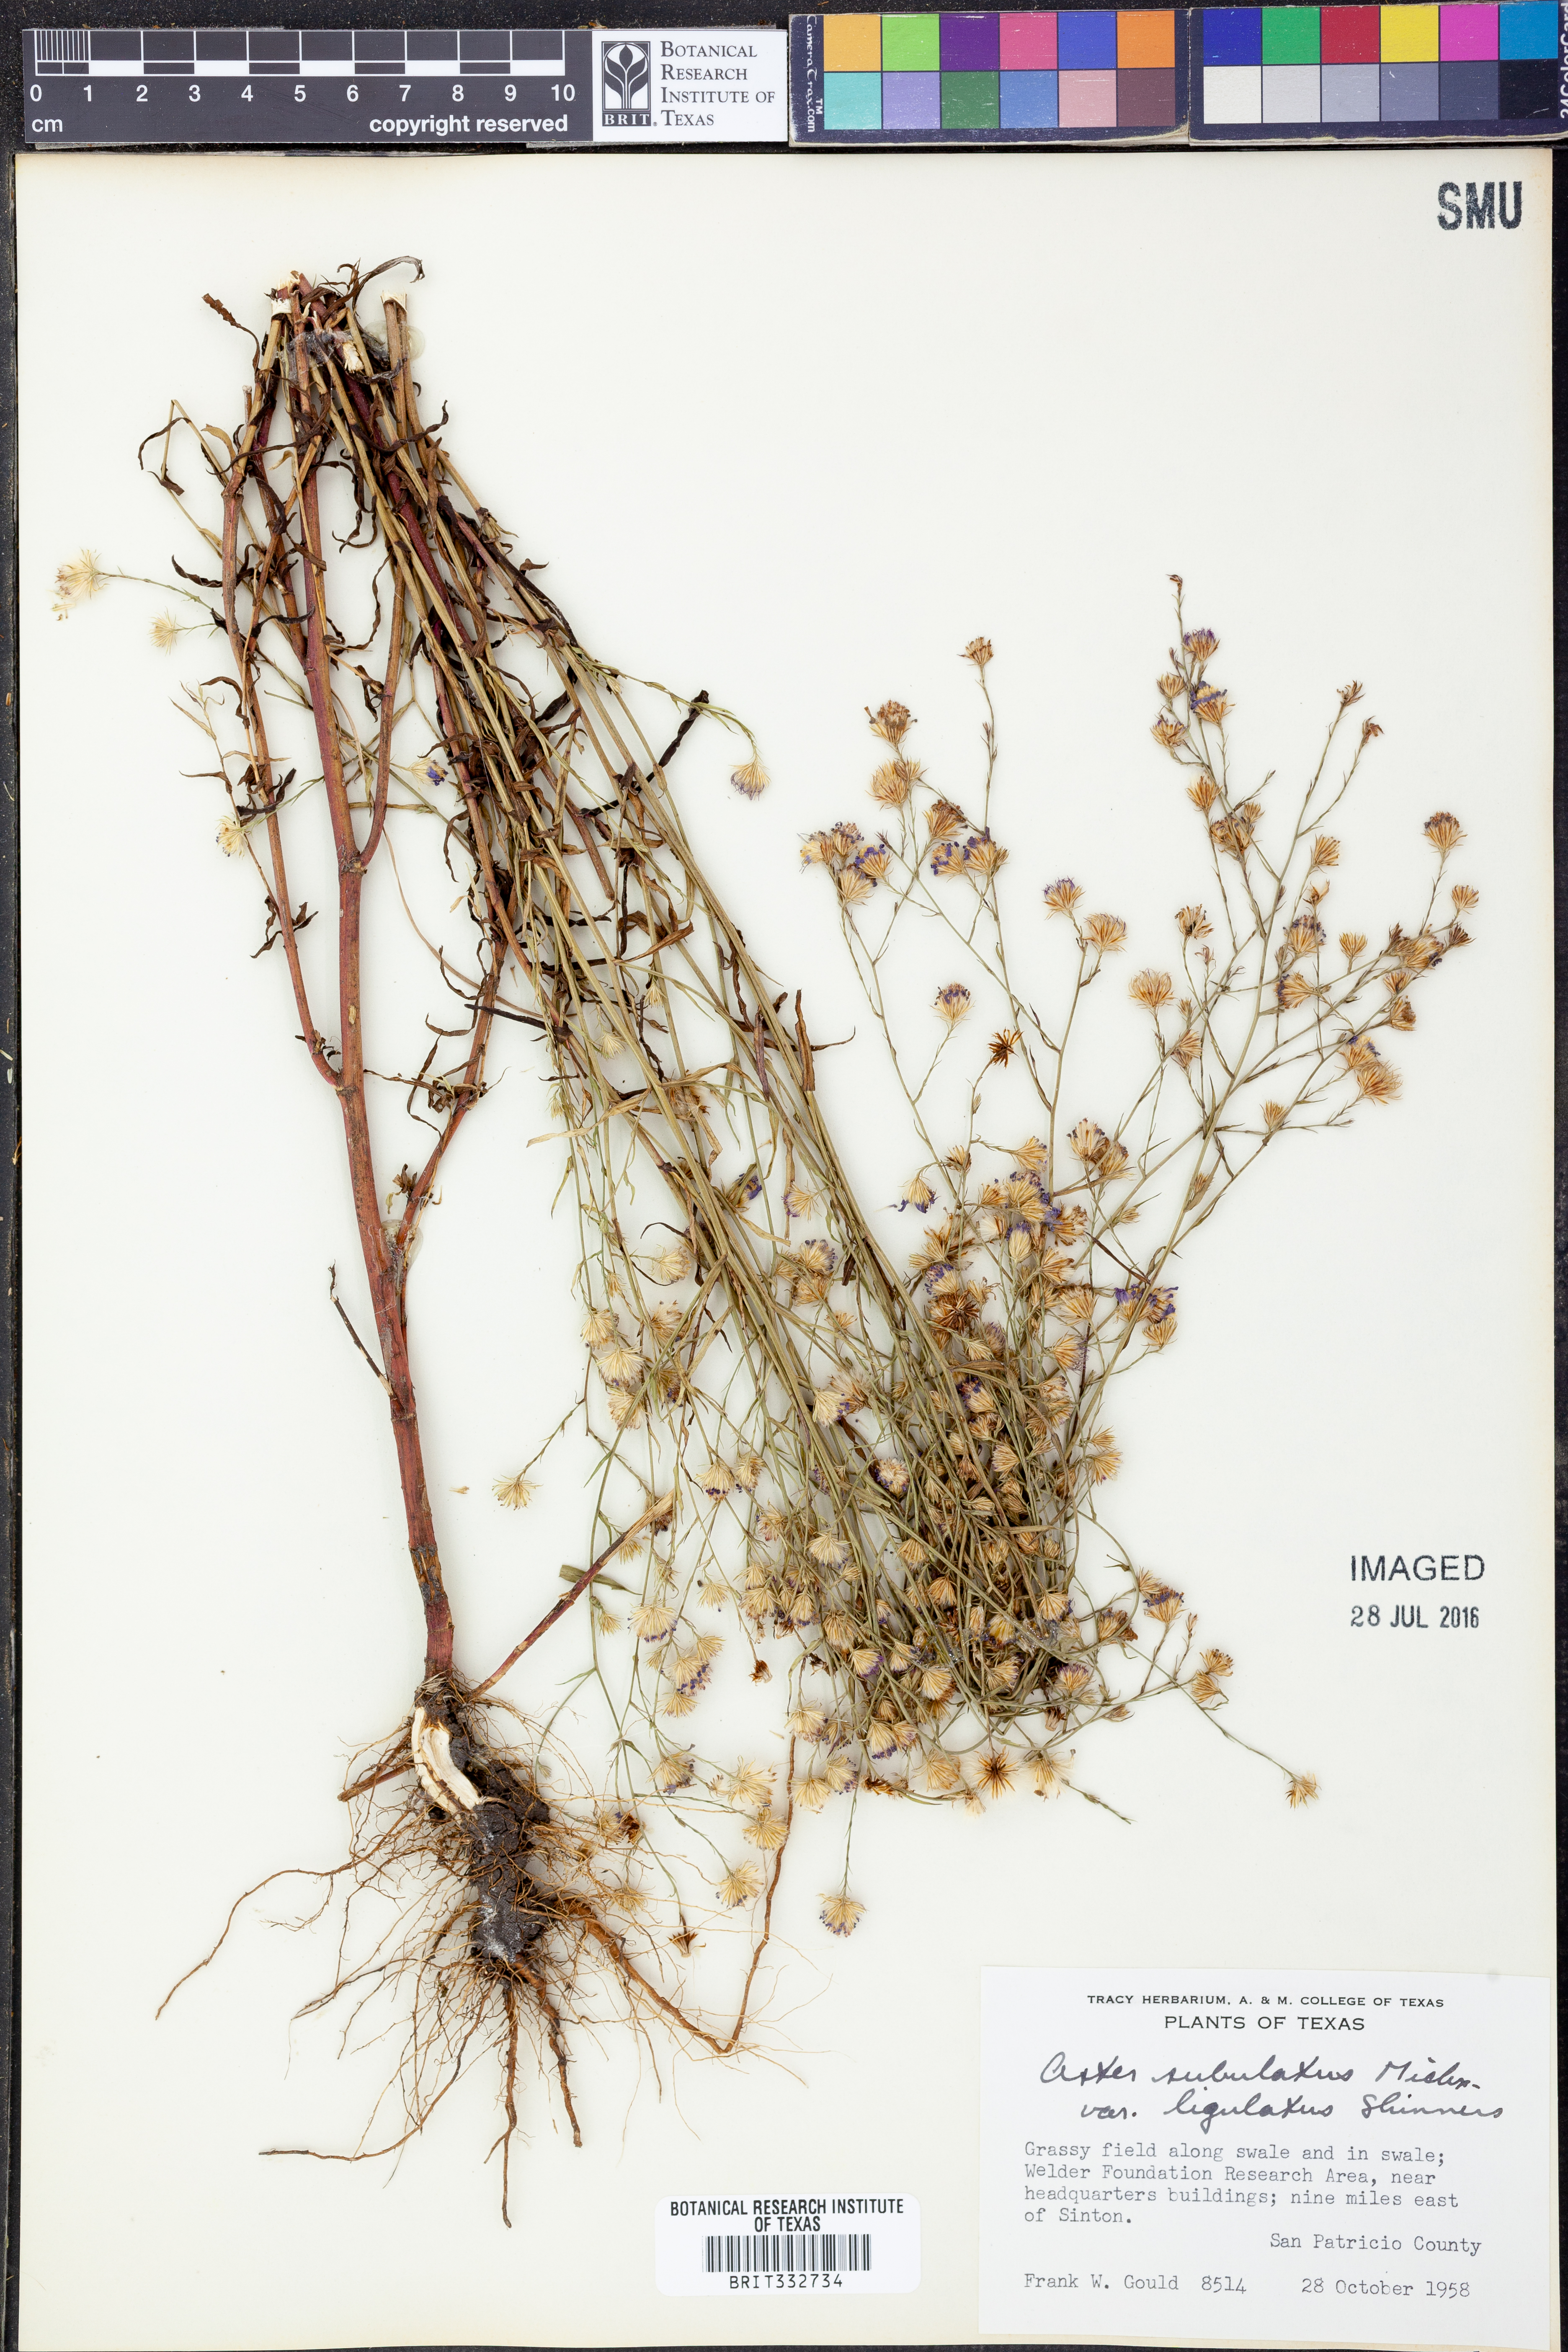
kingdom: Plantae
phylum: Tracheophyta
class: Magnoliopsida
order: Asterales
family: Asteraceae
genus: Symphyotrichum
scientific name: Symphyotrichum divaricatum
